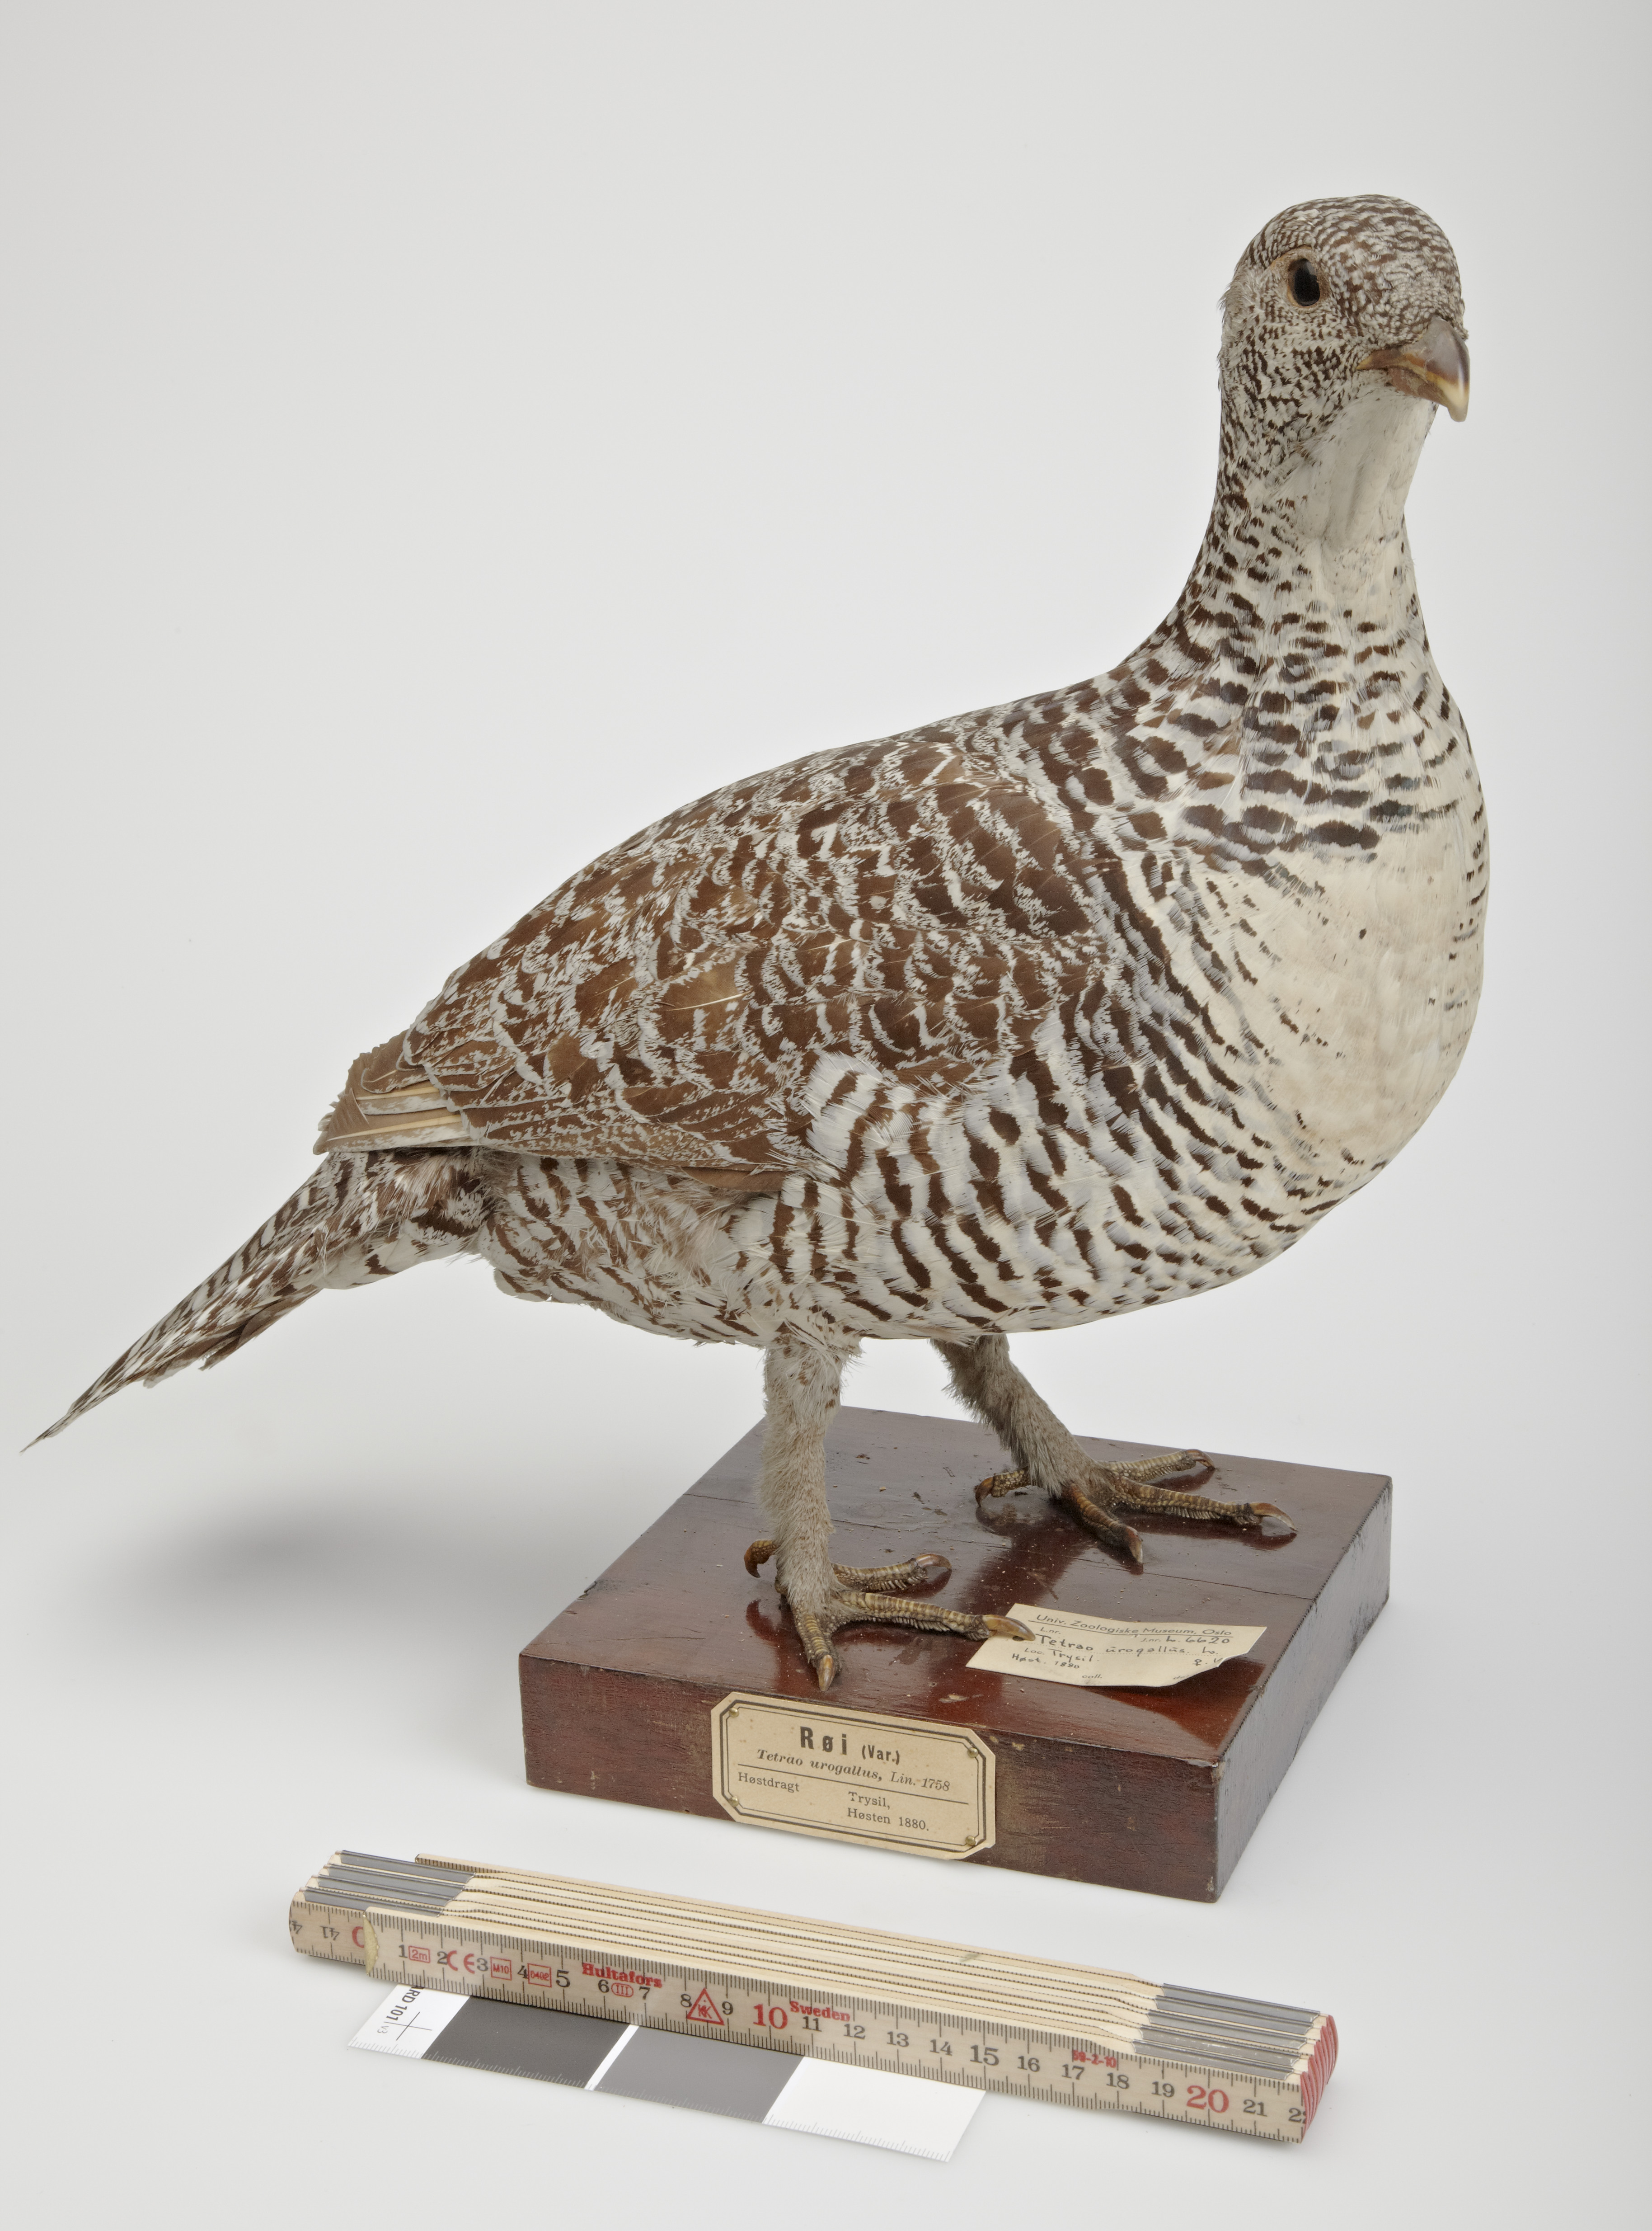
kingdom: Animalia
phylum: Chordata
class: Aves
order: Galliformes
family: Phasianidae
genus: Tetrao
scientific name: Tetrao urogallus
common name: Western capercaillie
